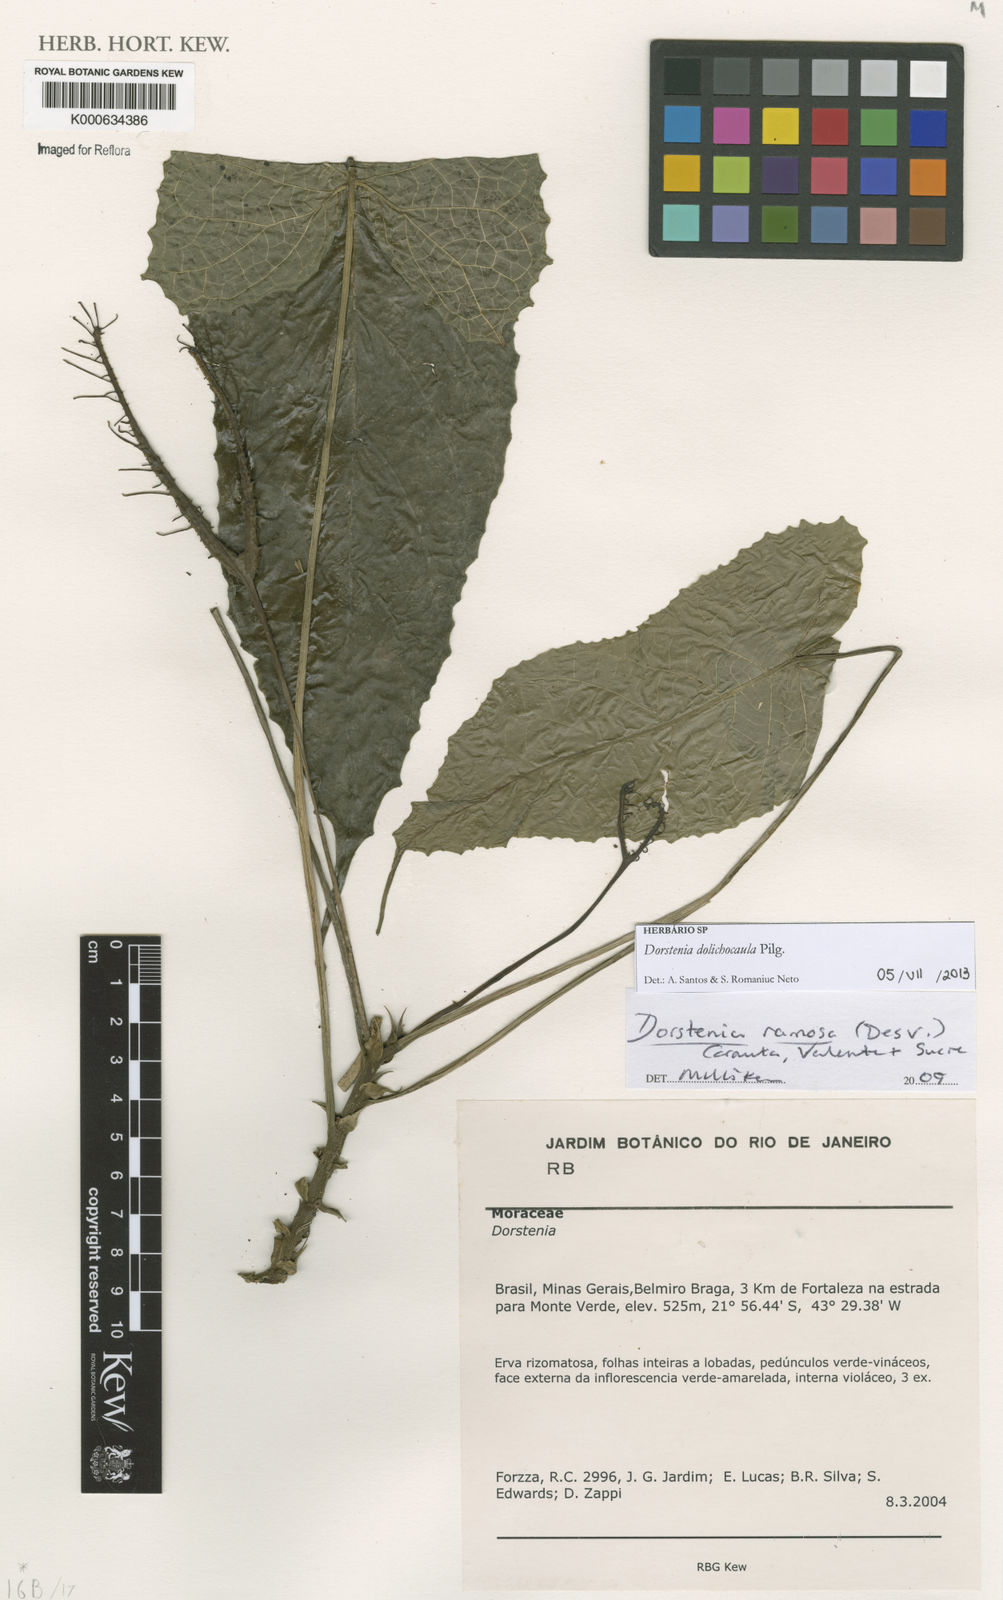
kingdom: Plantae
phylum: Tracheophyta
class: Magnoliopsida
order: Rosales
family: Moraceae
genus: Dorstenia
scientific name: Dorstenia ramosa
